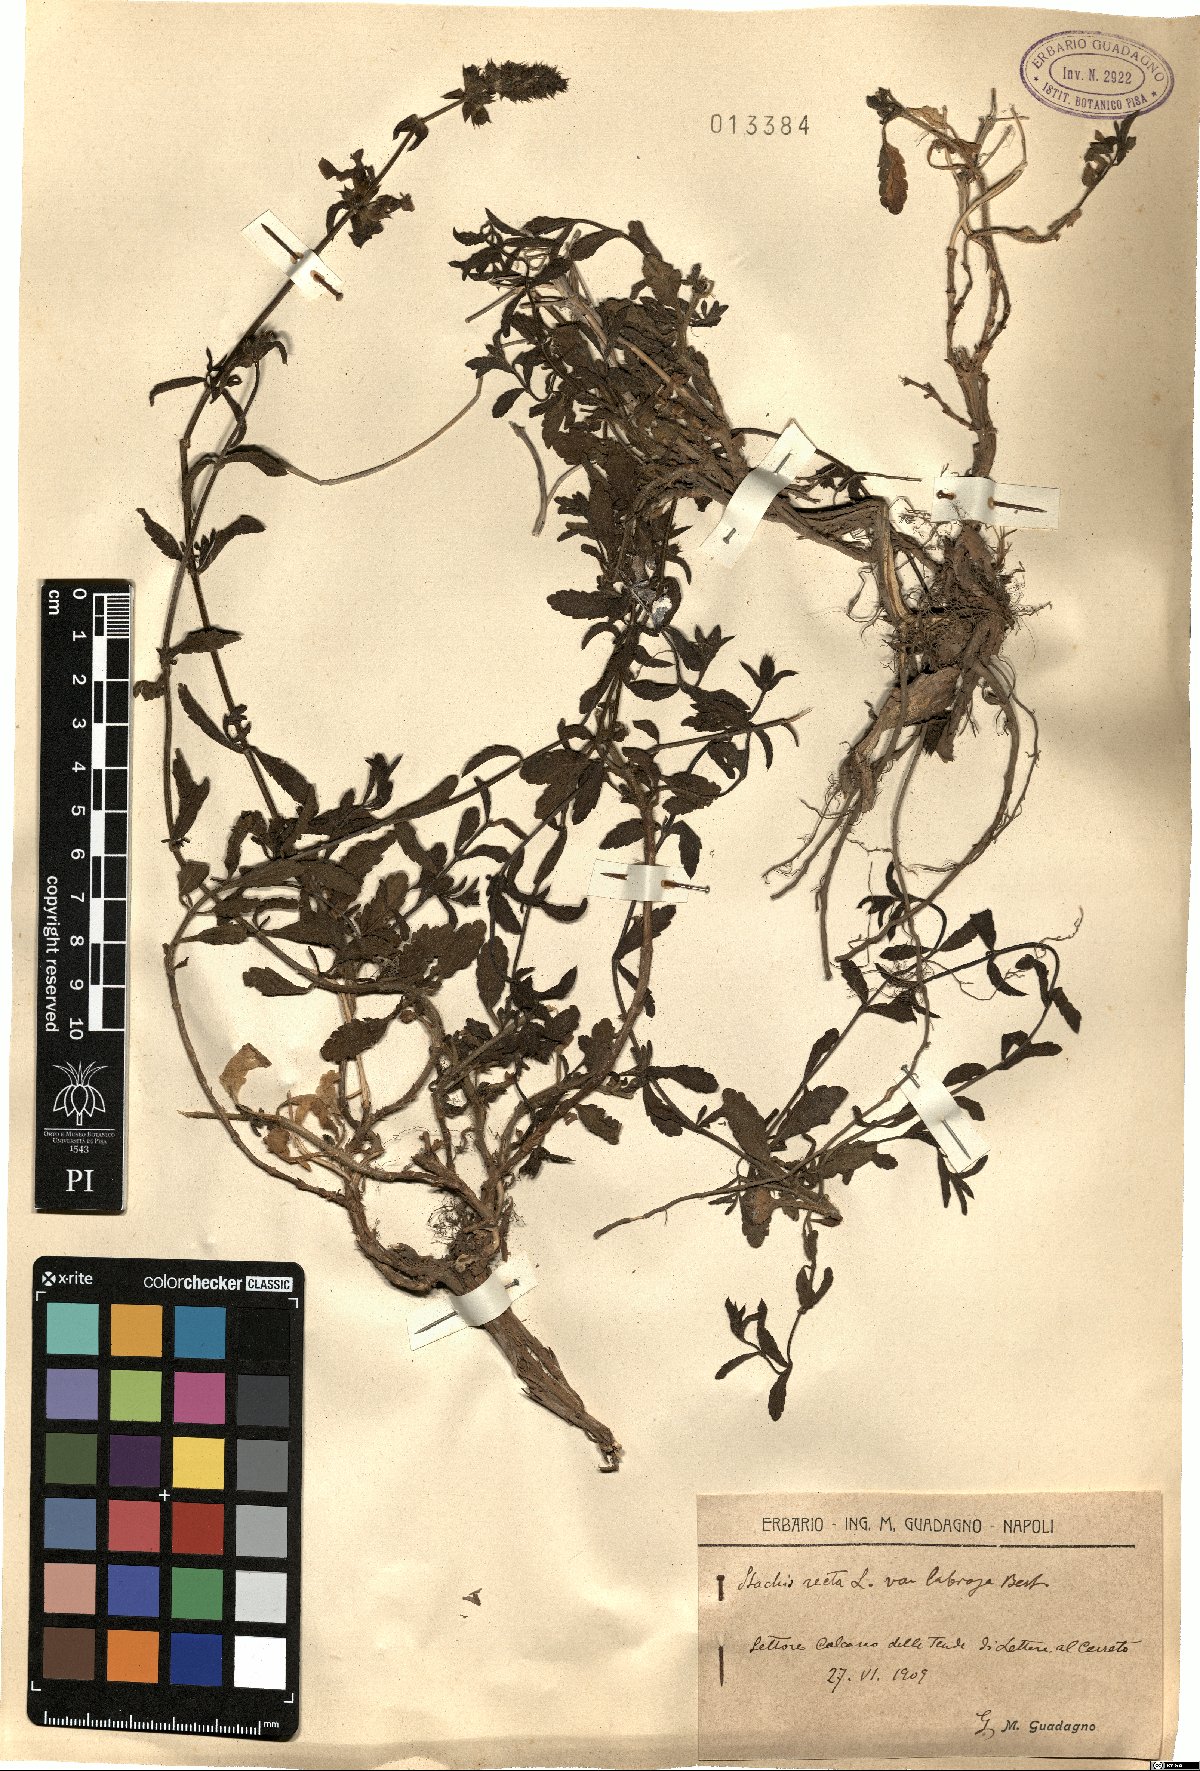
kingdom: Plantae
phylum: Tracheophyta
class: Magnoliopsida
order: Lamiales
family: Lamiaceae
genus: Stachys
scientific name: Stachys recta
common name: Perennial yellow-woundwort
